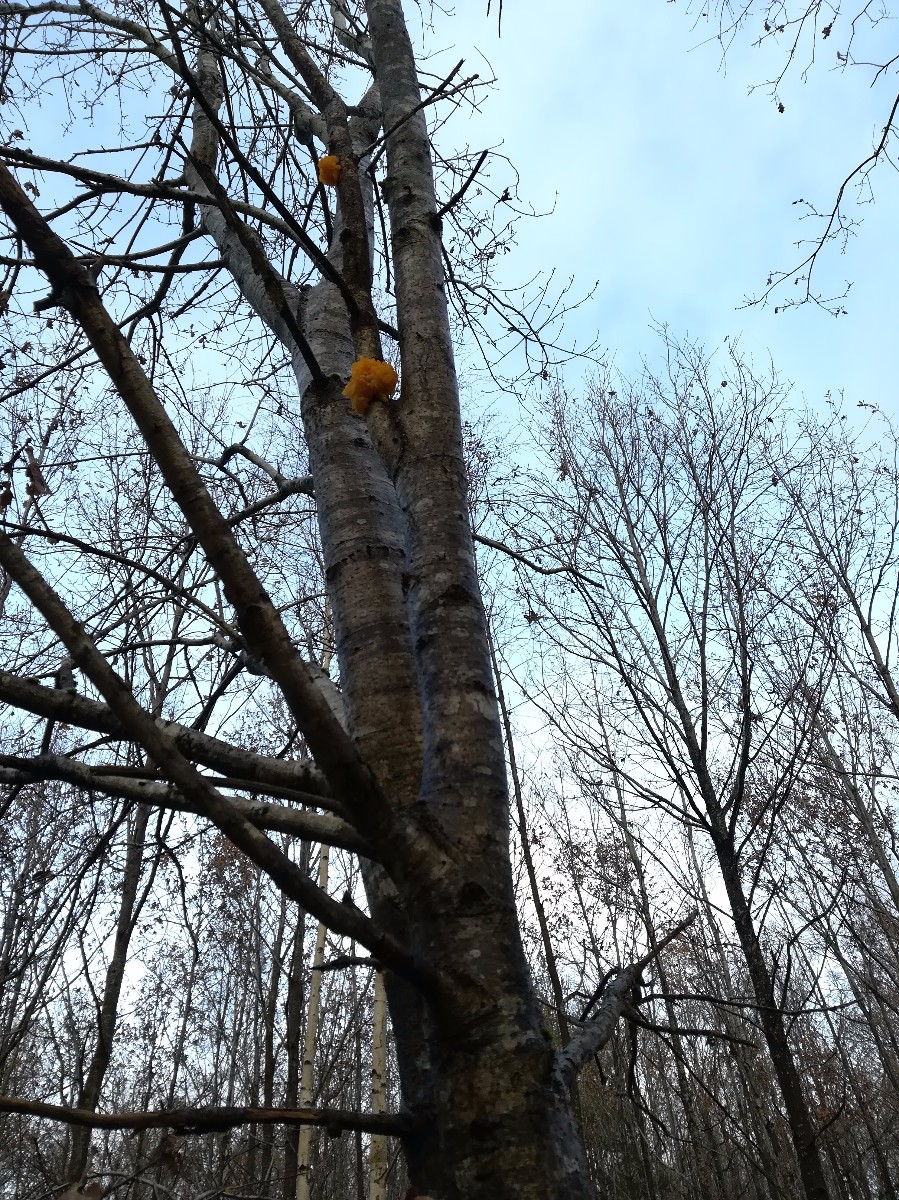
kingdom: Fungi
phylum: Basidiomycota
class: Tremellomycetes
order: Tremellales
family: Tremellaceae
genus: Tremella
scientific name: Tremella mesenterica
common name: gul bævresvamp
